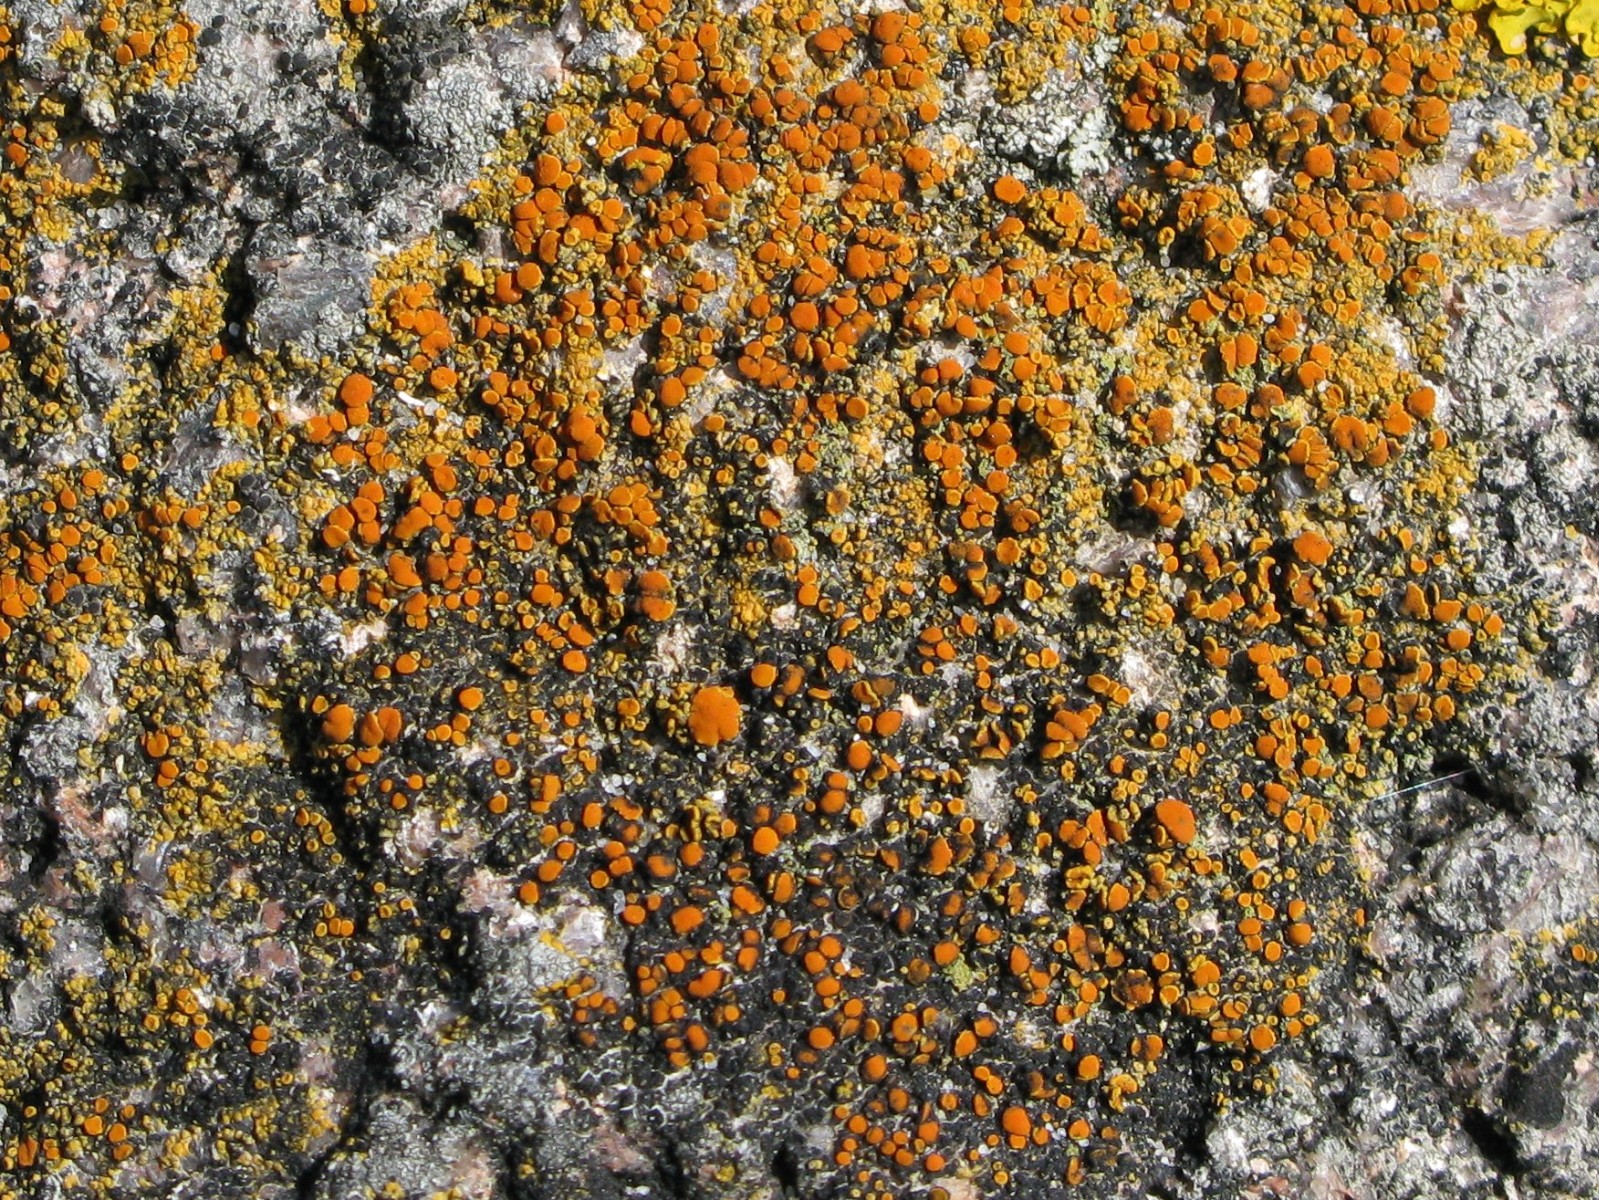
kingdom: Fungi
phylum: Ascomycota
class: Lecanoromycetes
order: Teloschistales
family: Teloschistaceae
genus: Flavoplaca
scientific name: Flavoplaca marina
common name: strand-orangelav
